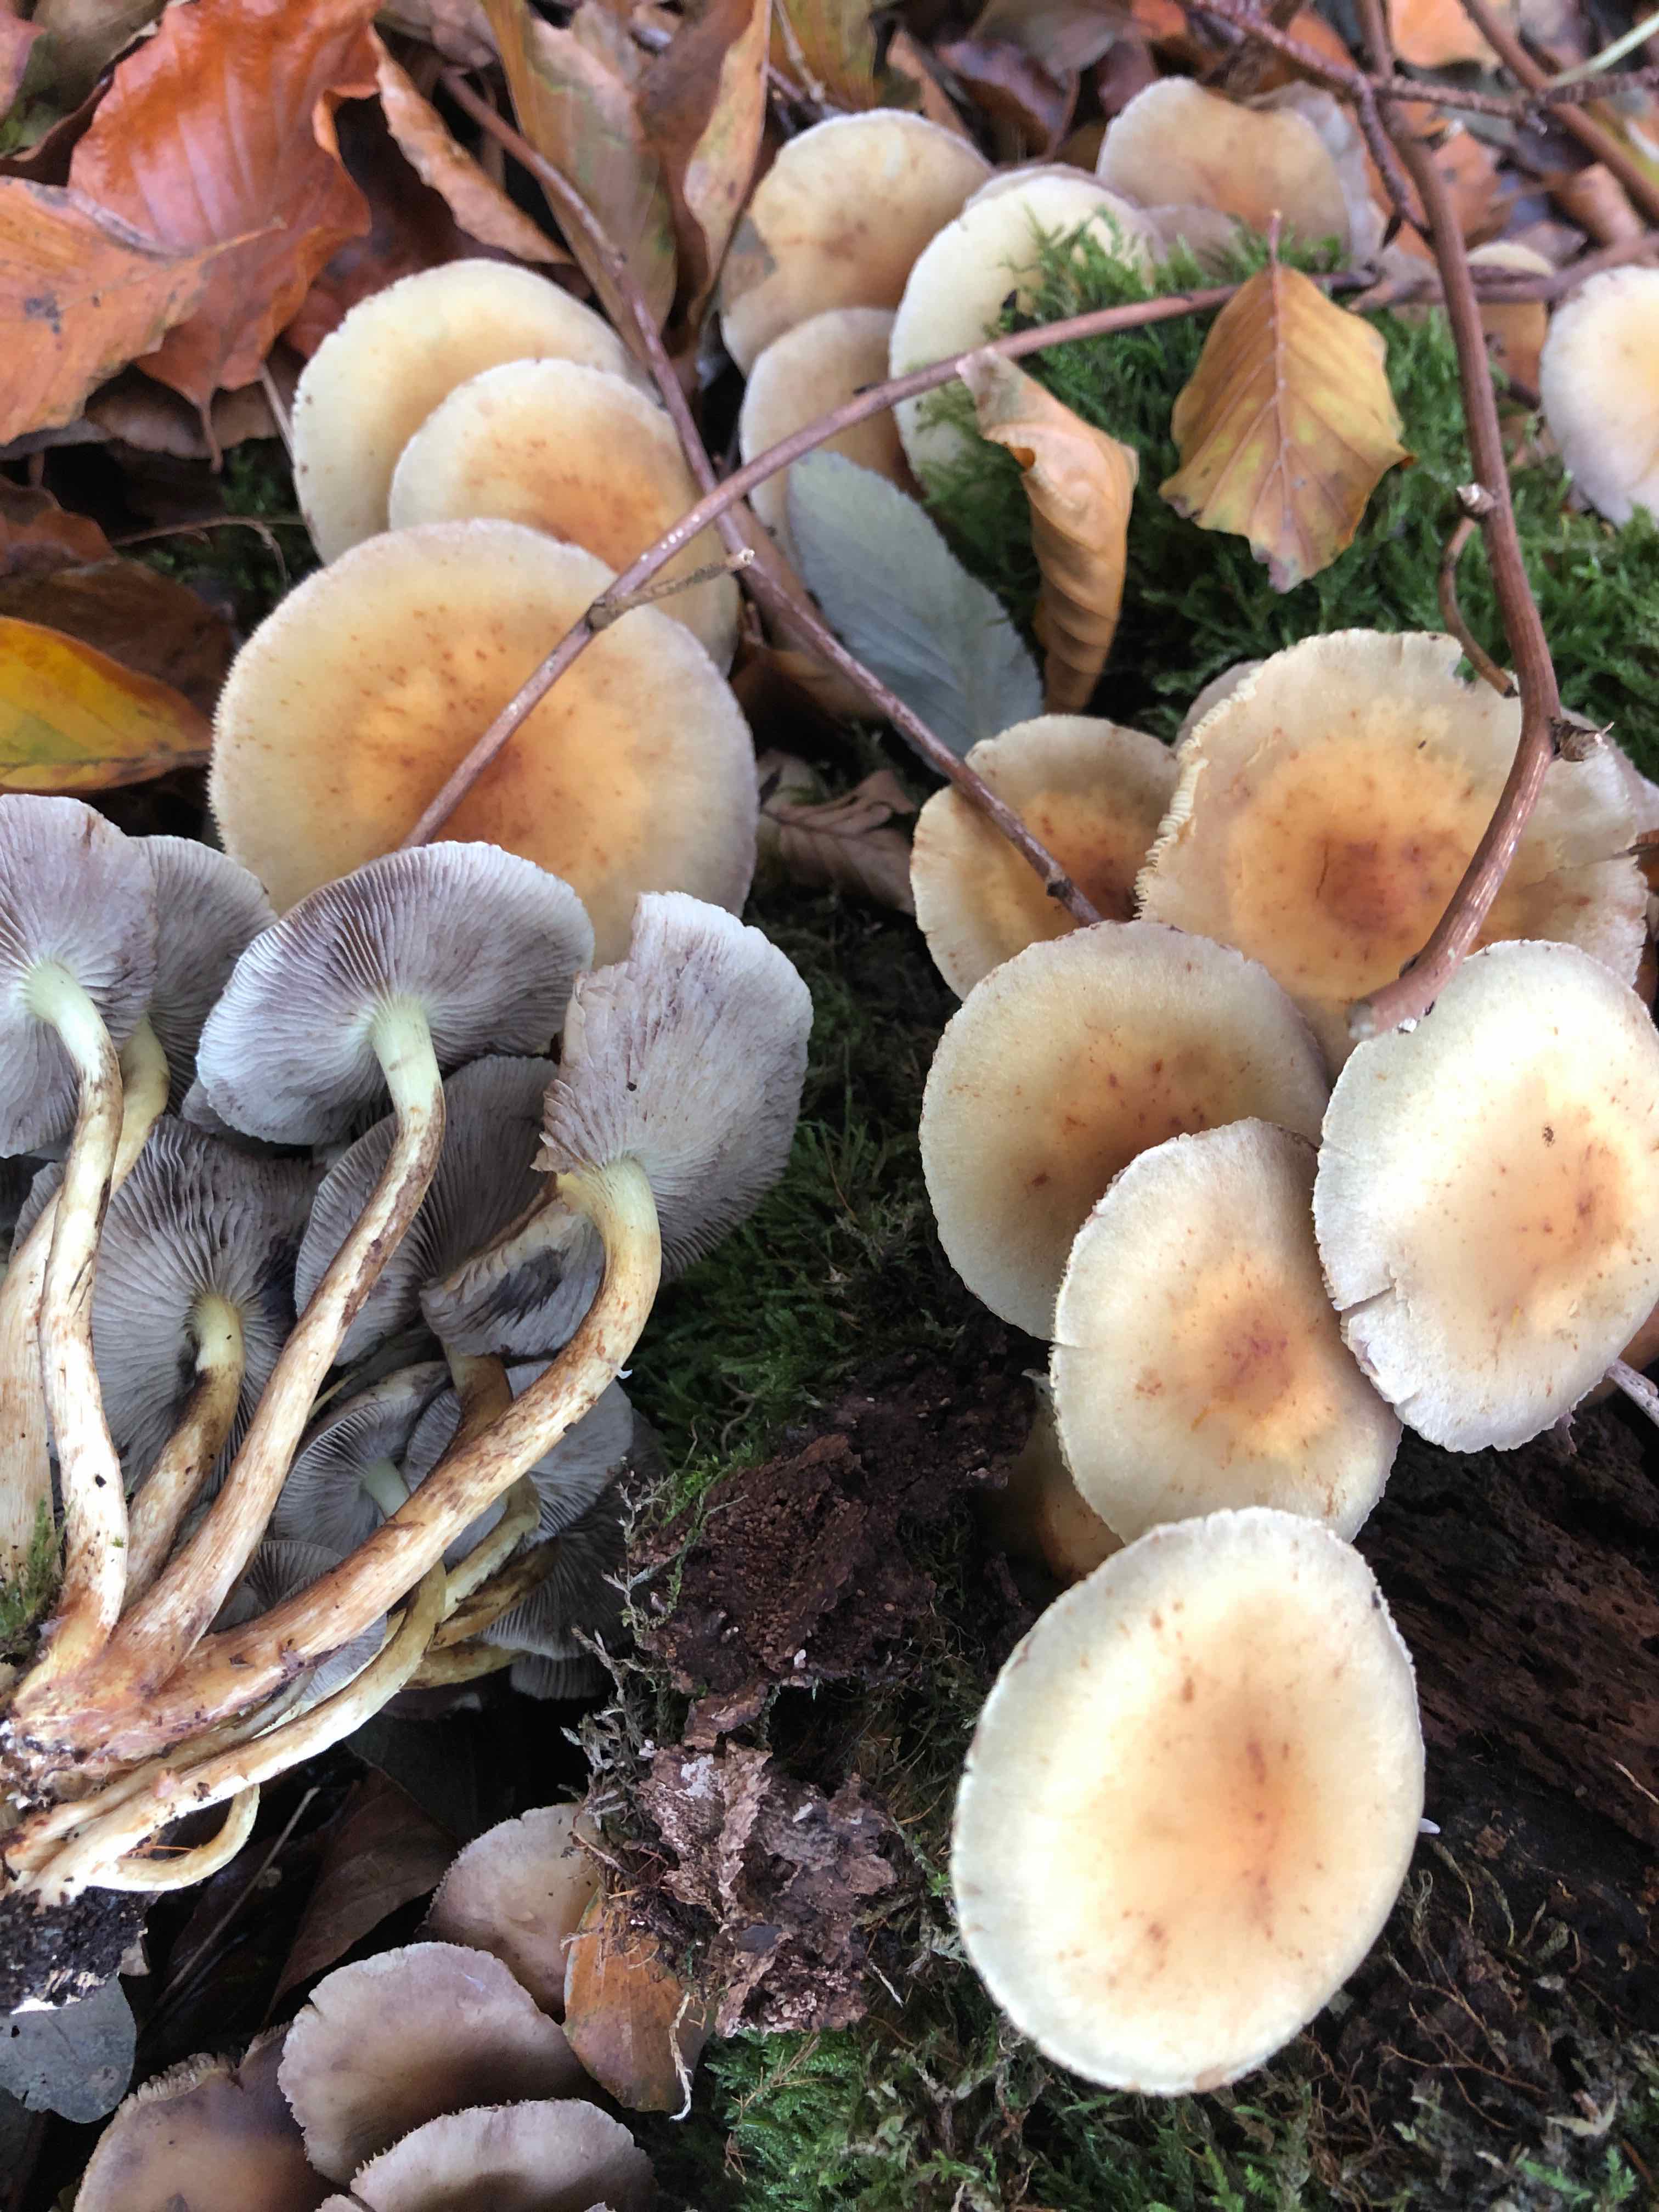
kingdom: Fungi
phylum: Basidiomycota
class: Agaricomycetes
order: Agaricales
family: Strophariaceae
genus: Hypholoma
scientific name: Hypholoma fasciculare
